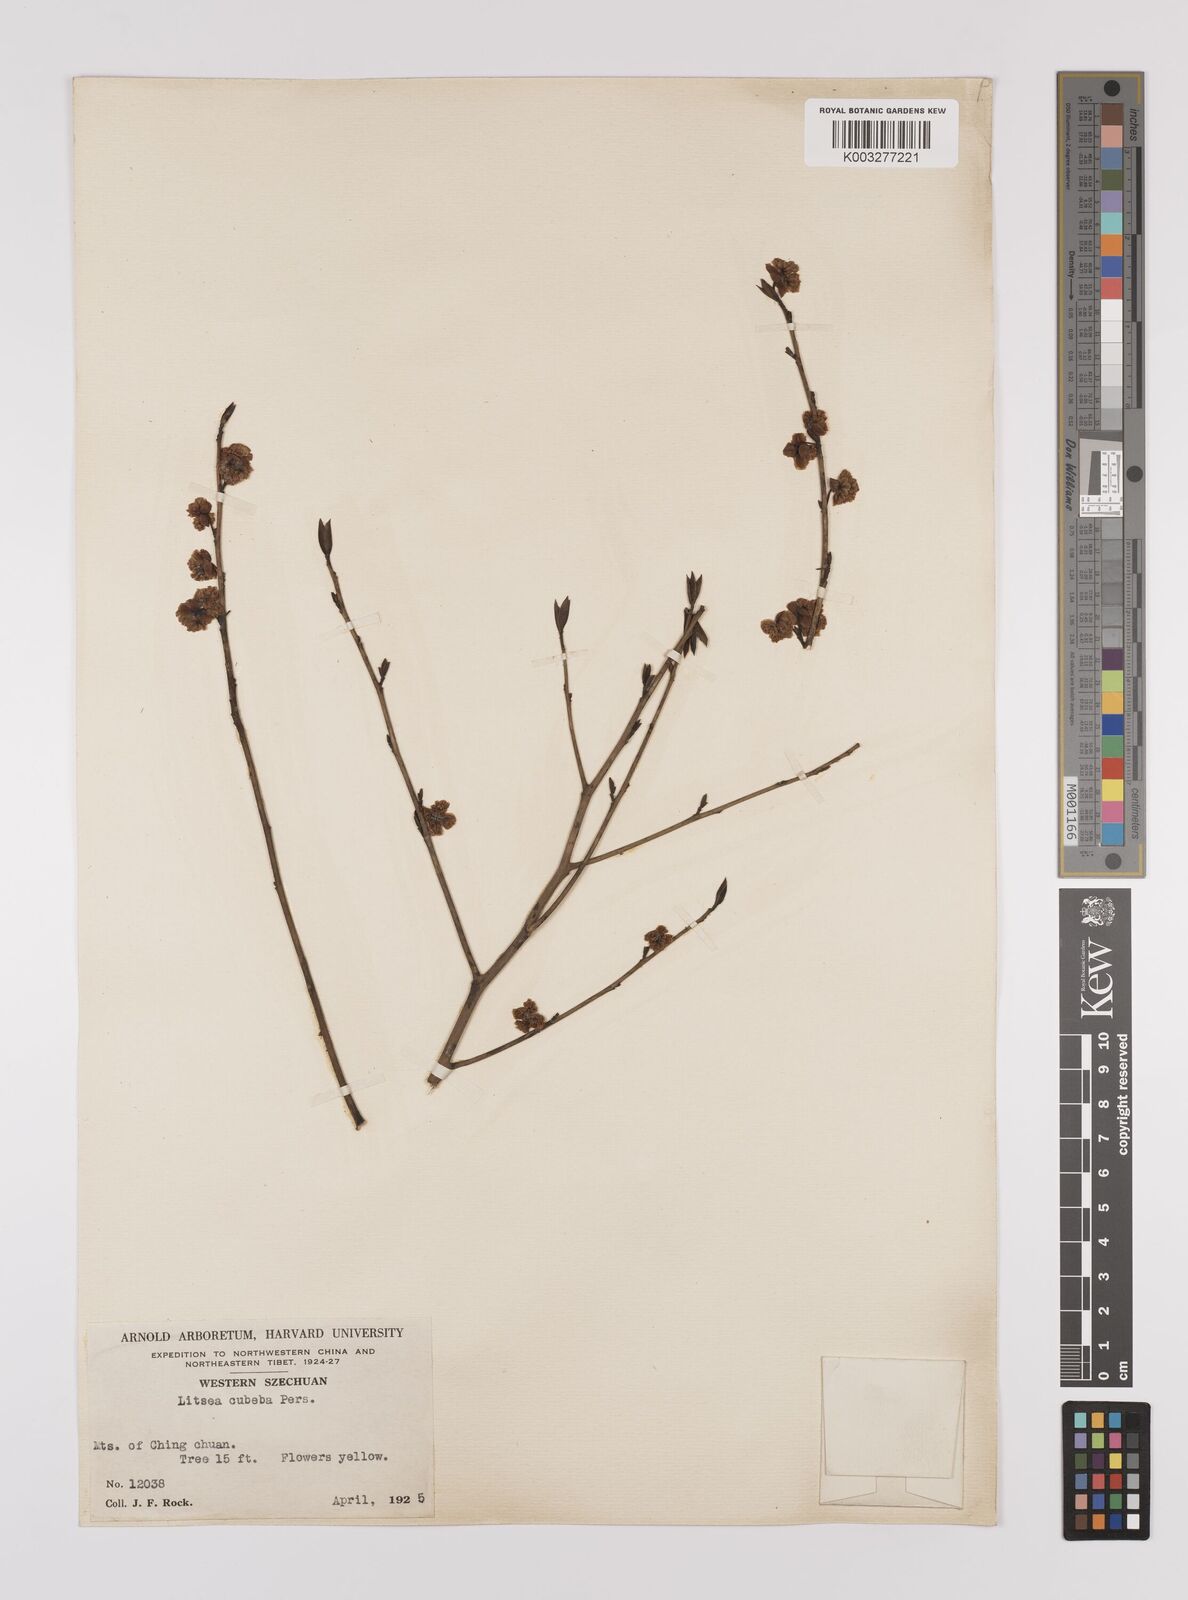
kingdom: Plantae
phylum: Tracheophyta
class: Magnoliopsida
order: Laurales
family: Lauraceae
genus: Litsea
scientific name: Litsea cubeba
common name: Mountain-pepper
